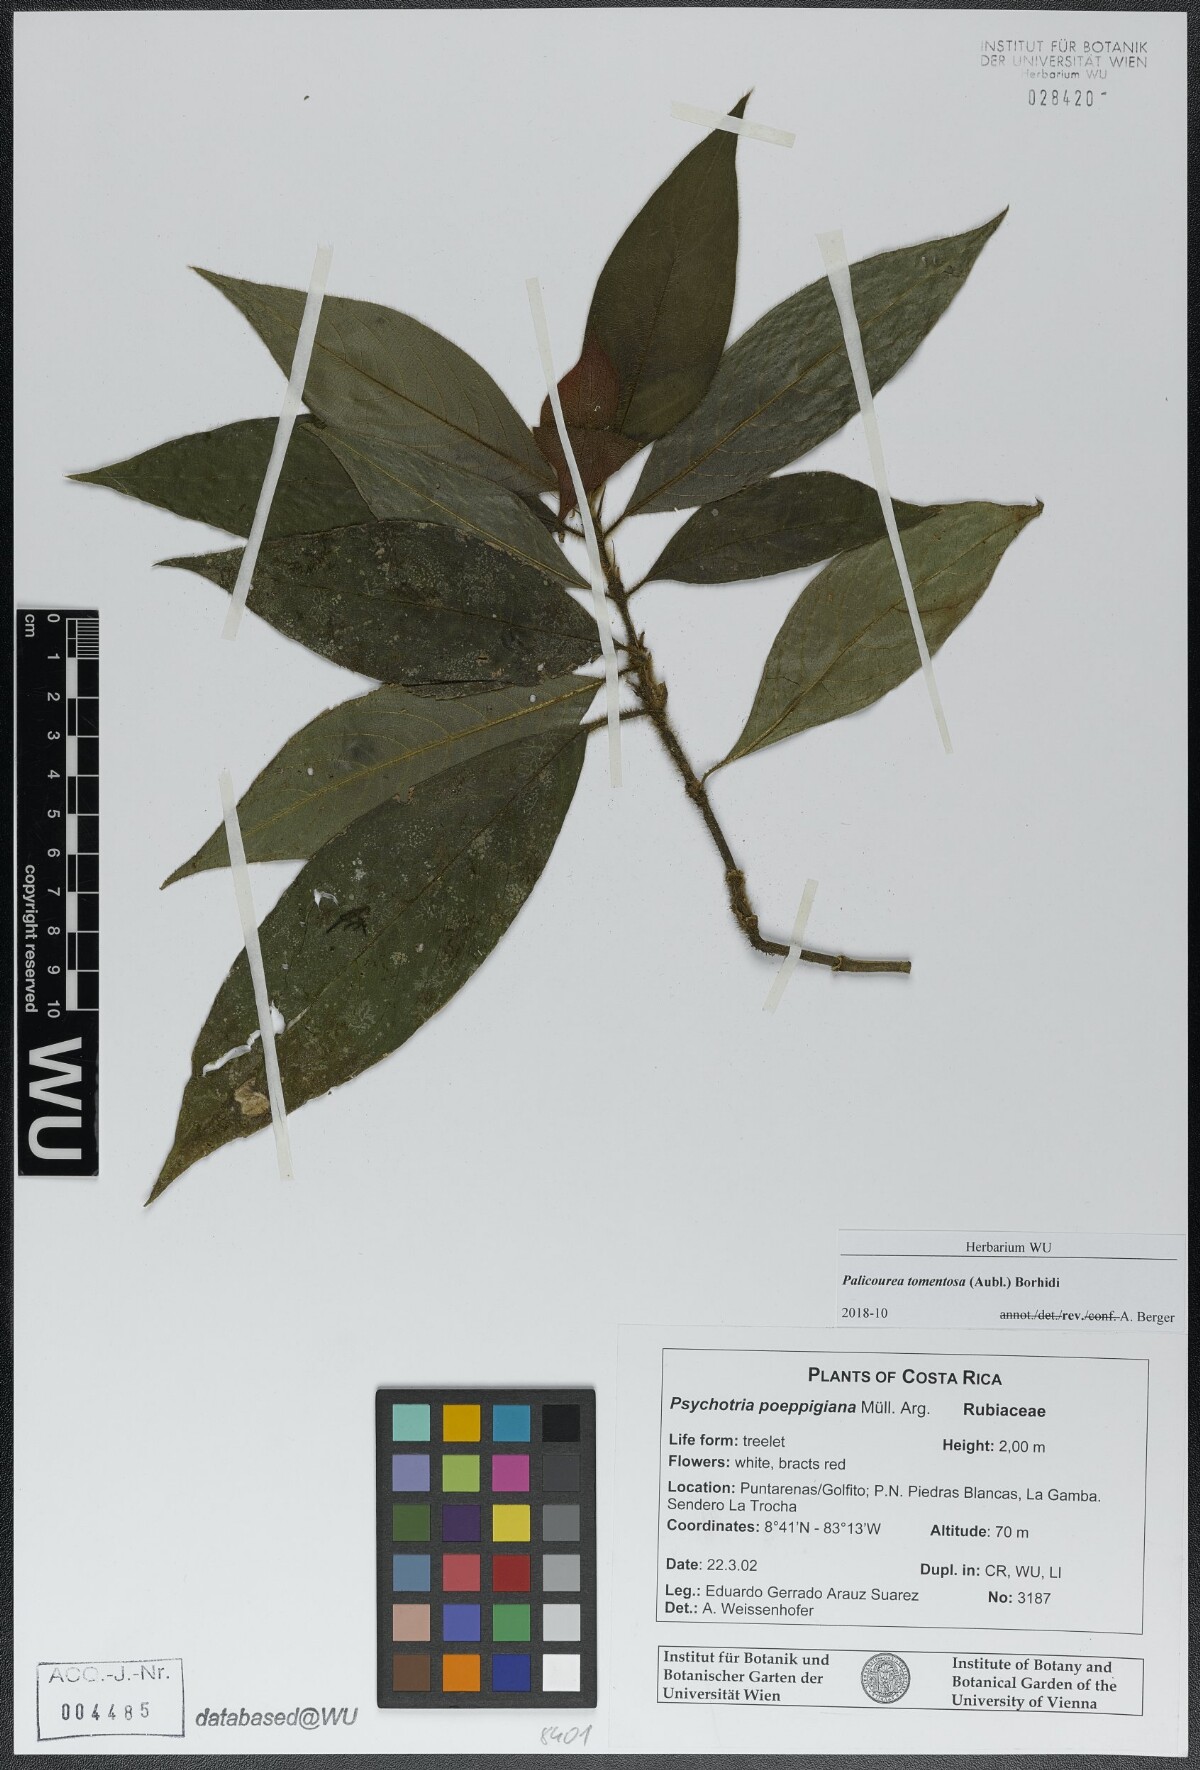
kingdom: Plantae
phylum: Tracheophyta
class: Magnoliopsida
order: Gentianales
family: Rubiaceae
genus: Palicourea
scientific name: Palicourea tomentosa
